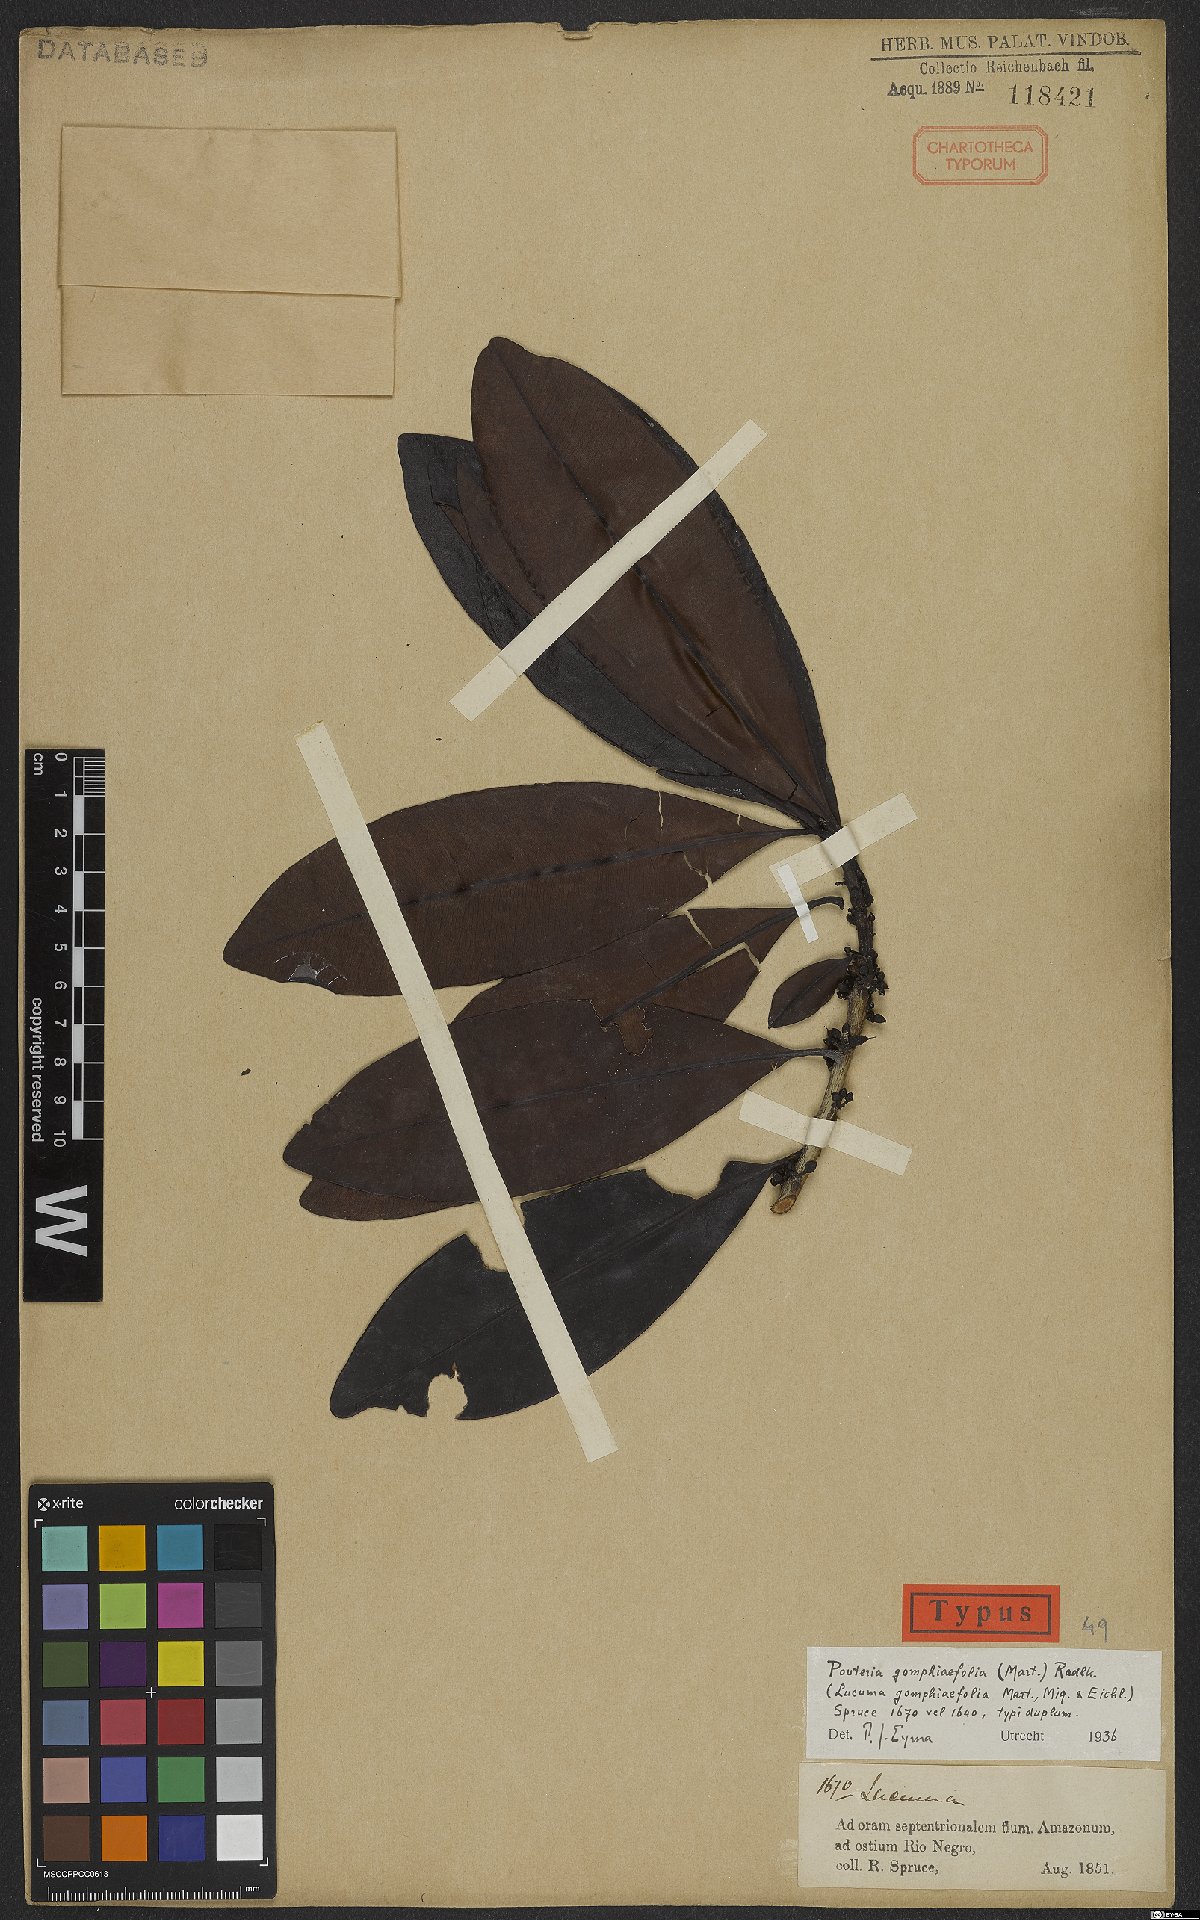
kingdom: Plantae
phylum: Tracheophyta
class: Magnoliopsida
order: Ericales
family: Sapotaceae
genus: Pouteria
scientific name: Pouteria gomphiifolia
